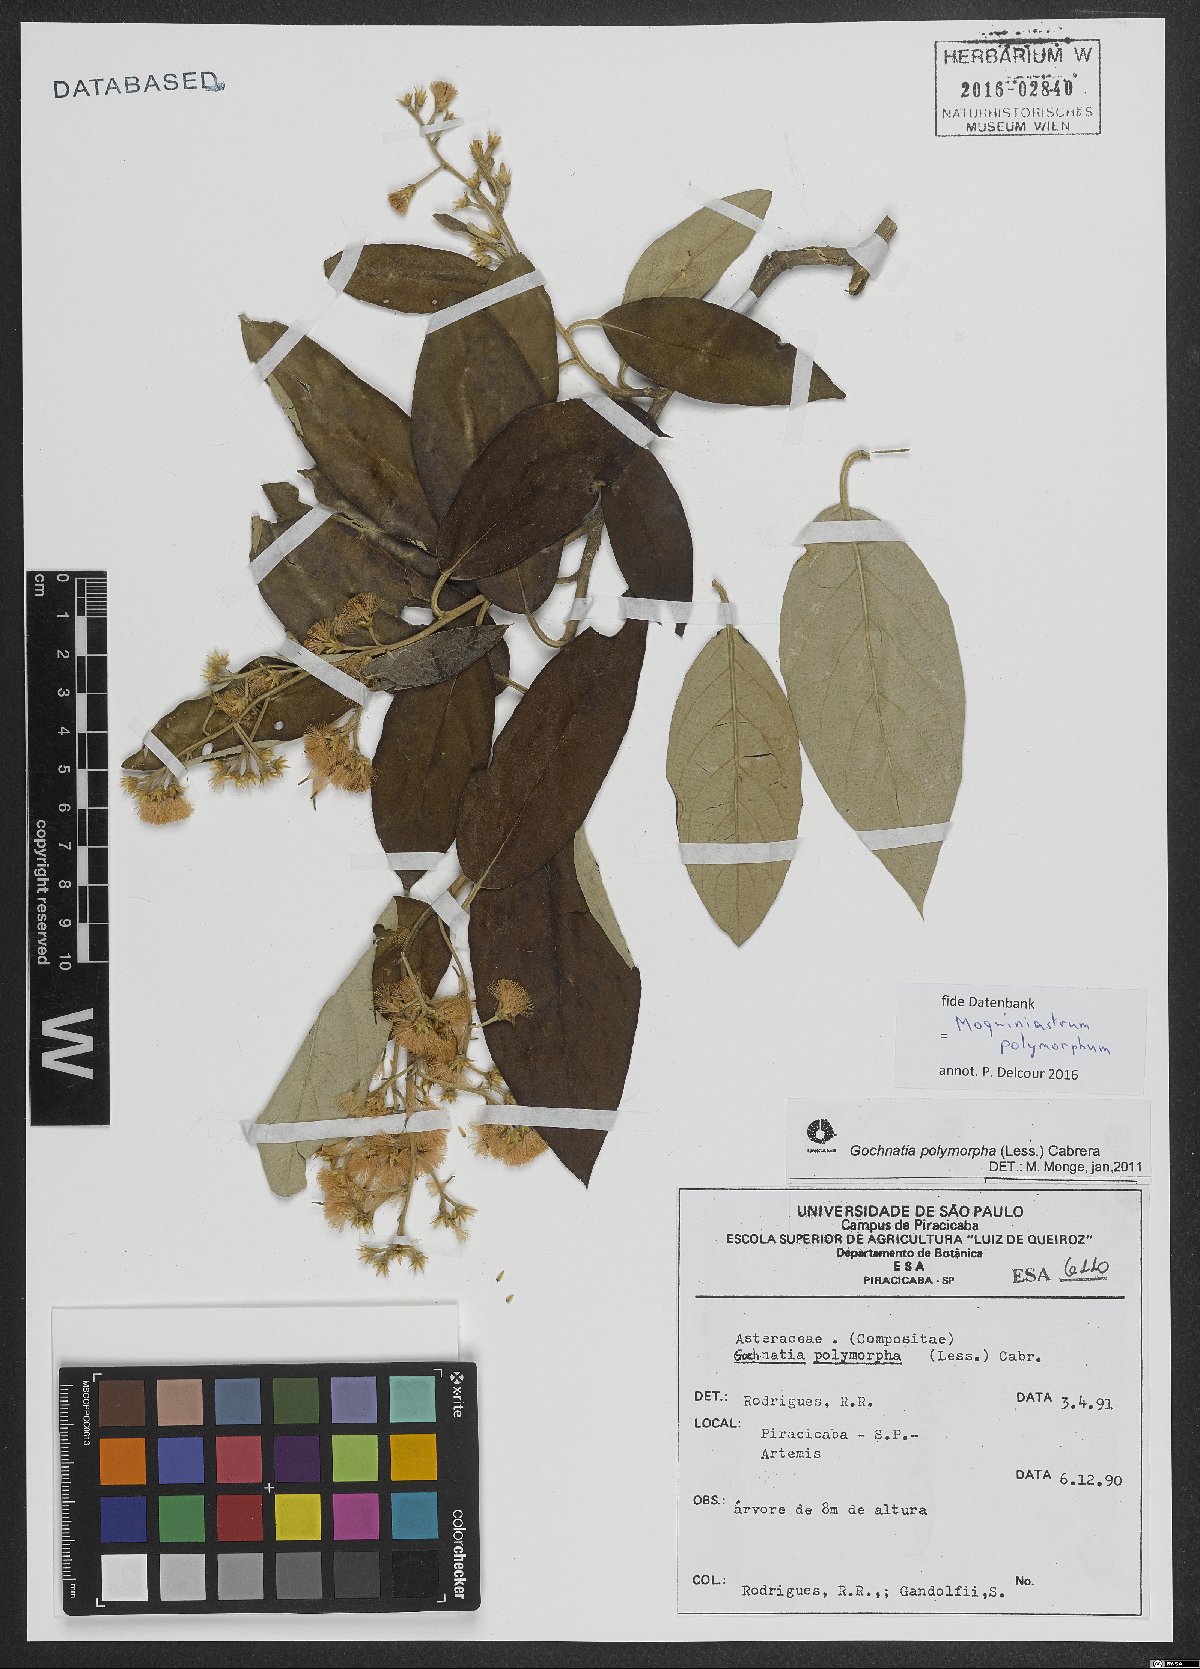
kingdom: Plantae
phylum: Tracheophyta
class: Magnoliopsida
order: Asterales
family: Asteraceae
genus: Moquiniastrum
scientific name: Moquiniastrum polymorphum
